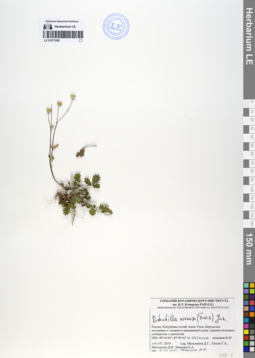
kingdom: Plantae
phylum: Tracheophyta
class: Magnoliopsida
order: Rosales
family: Rosaceae
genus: Potentilla
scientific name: Potentilla arenosa
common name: Bluff cinquefoil
